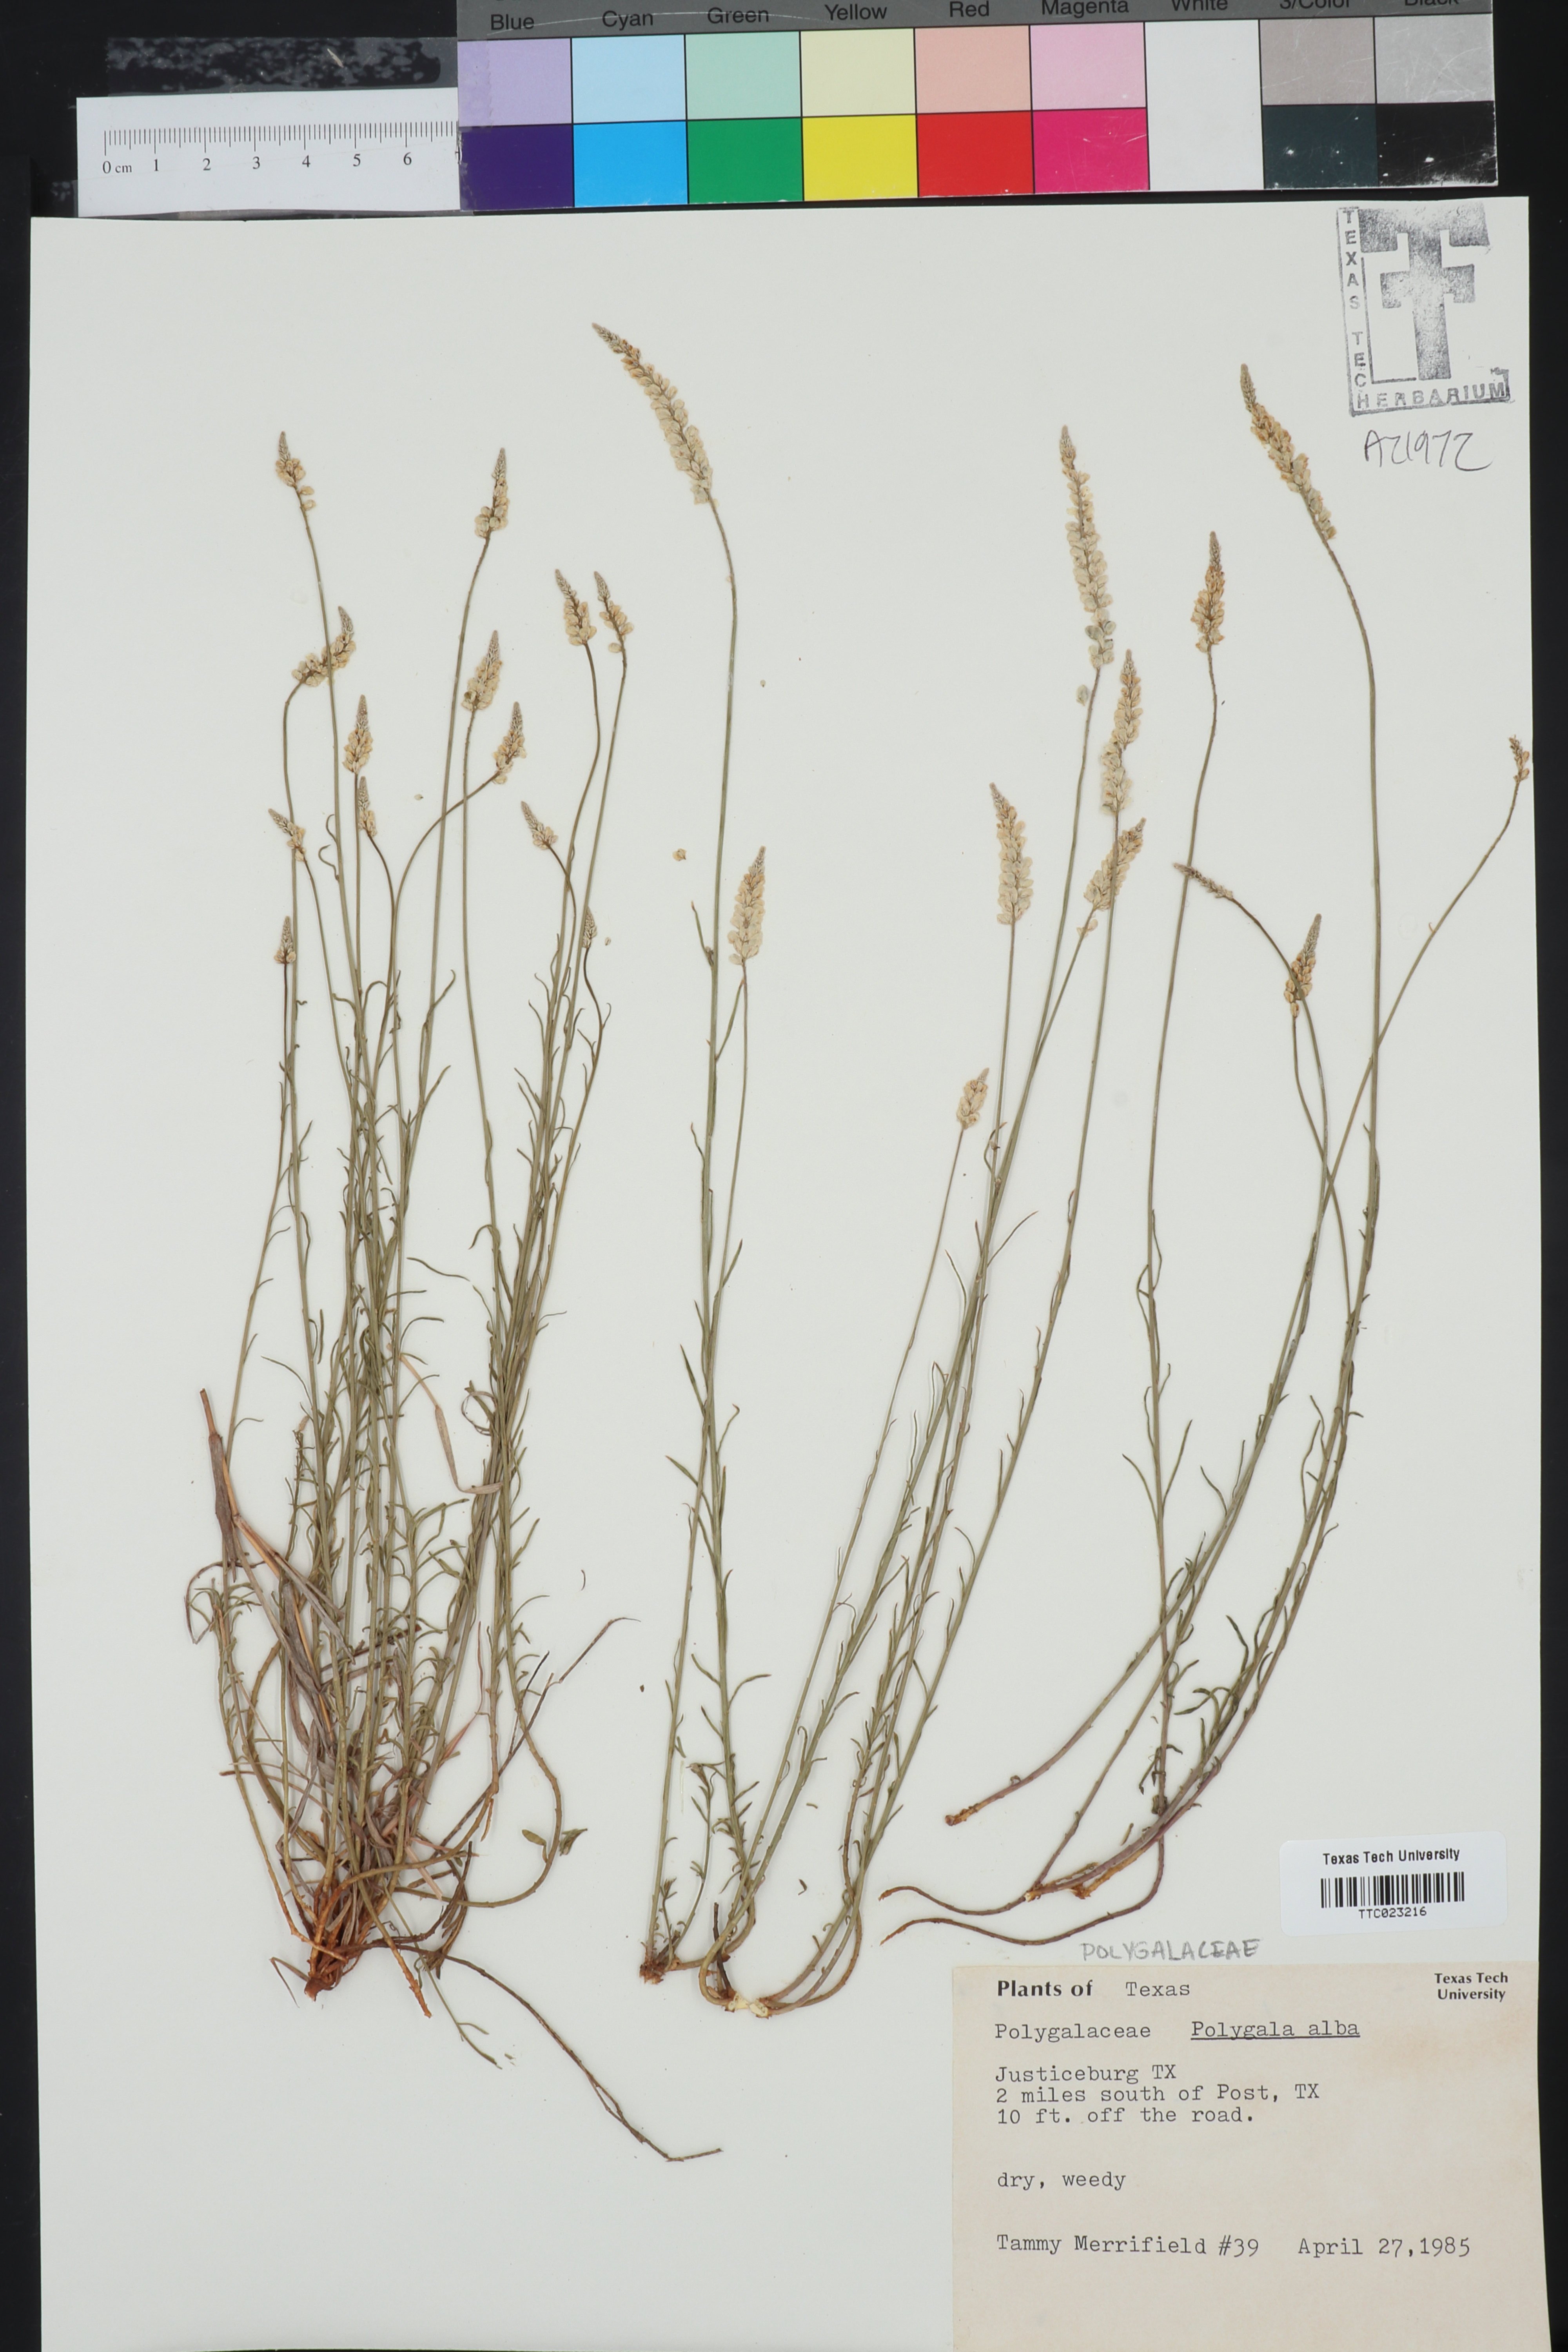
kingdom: Plantae
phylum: Tracheophyta
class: Magnoliopsida
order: Fabales
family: Polygalaceae
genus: Polygala
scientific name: Polygala alba
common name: White milkwort
